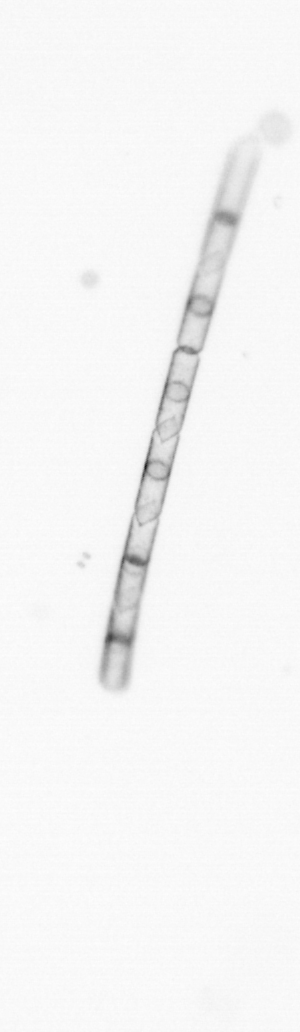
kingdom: Chromista
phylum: Ochrophyta
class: Bacillariophyceae
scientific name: Bacillariophyceae
